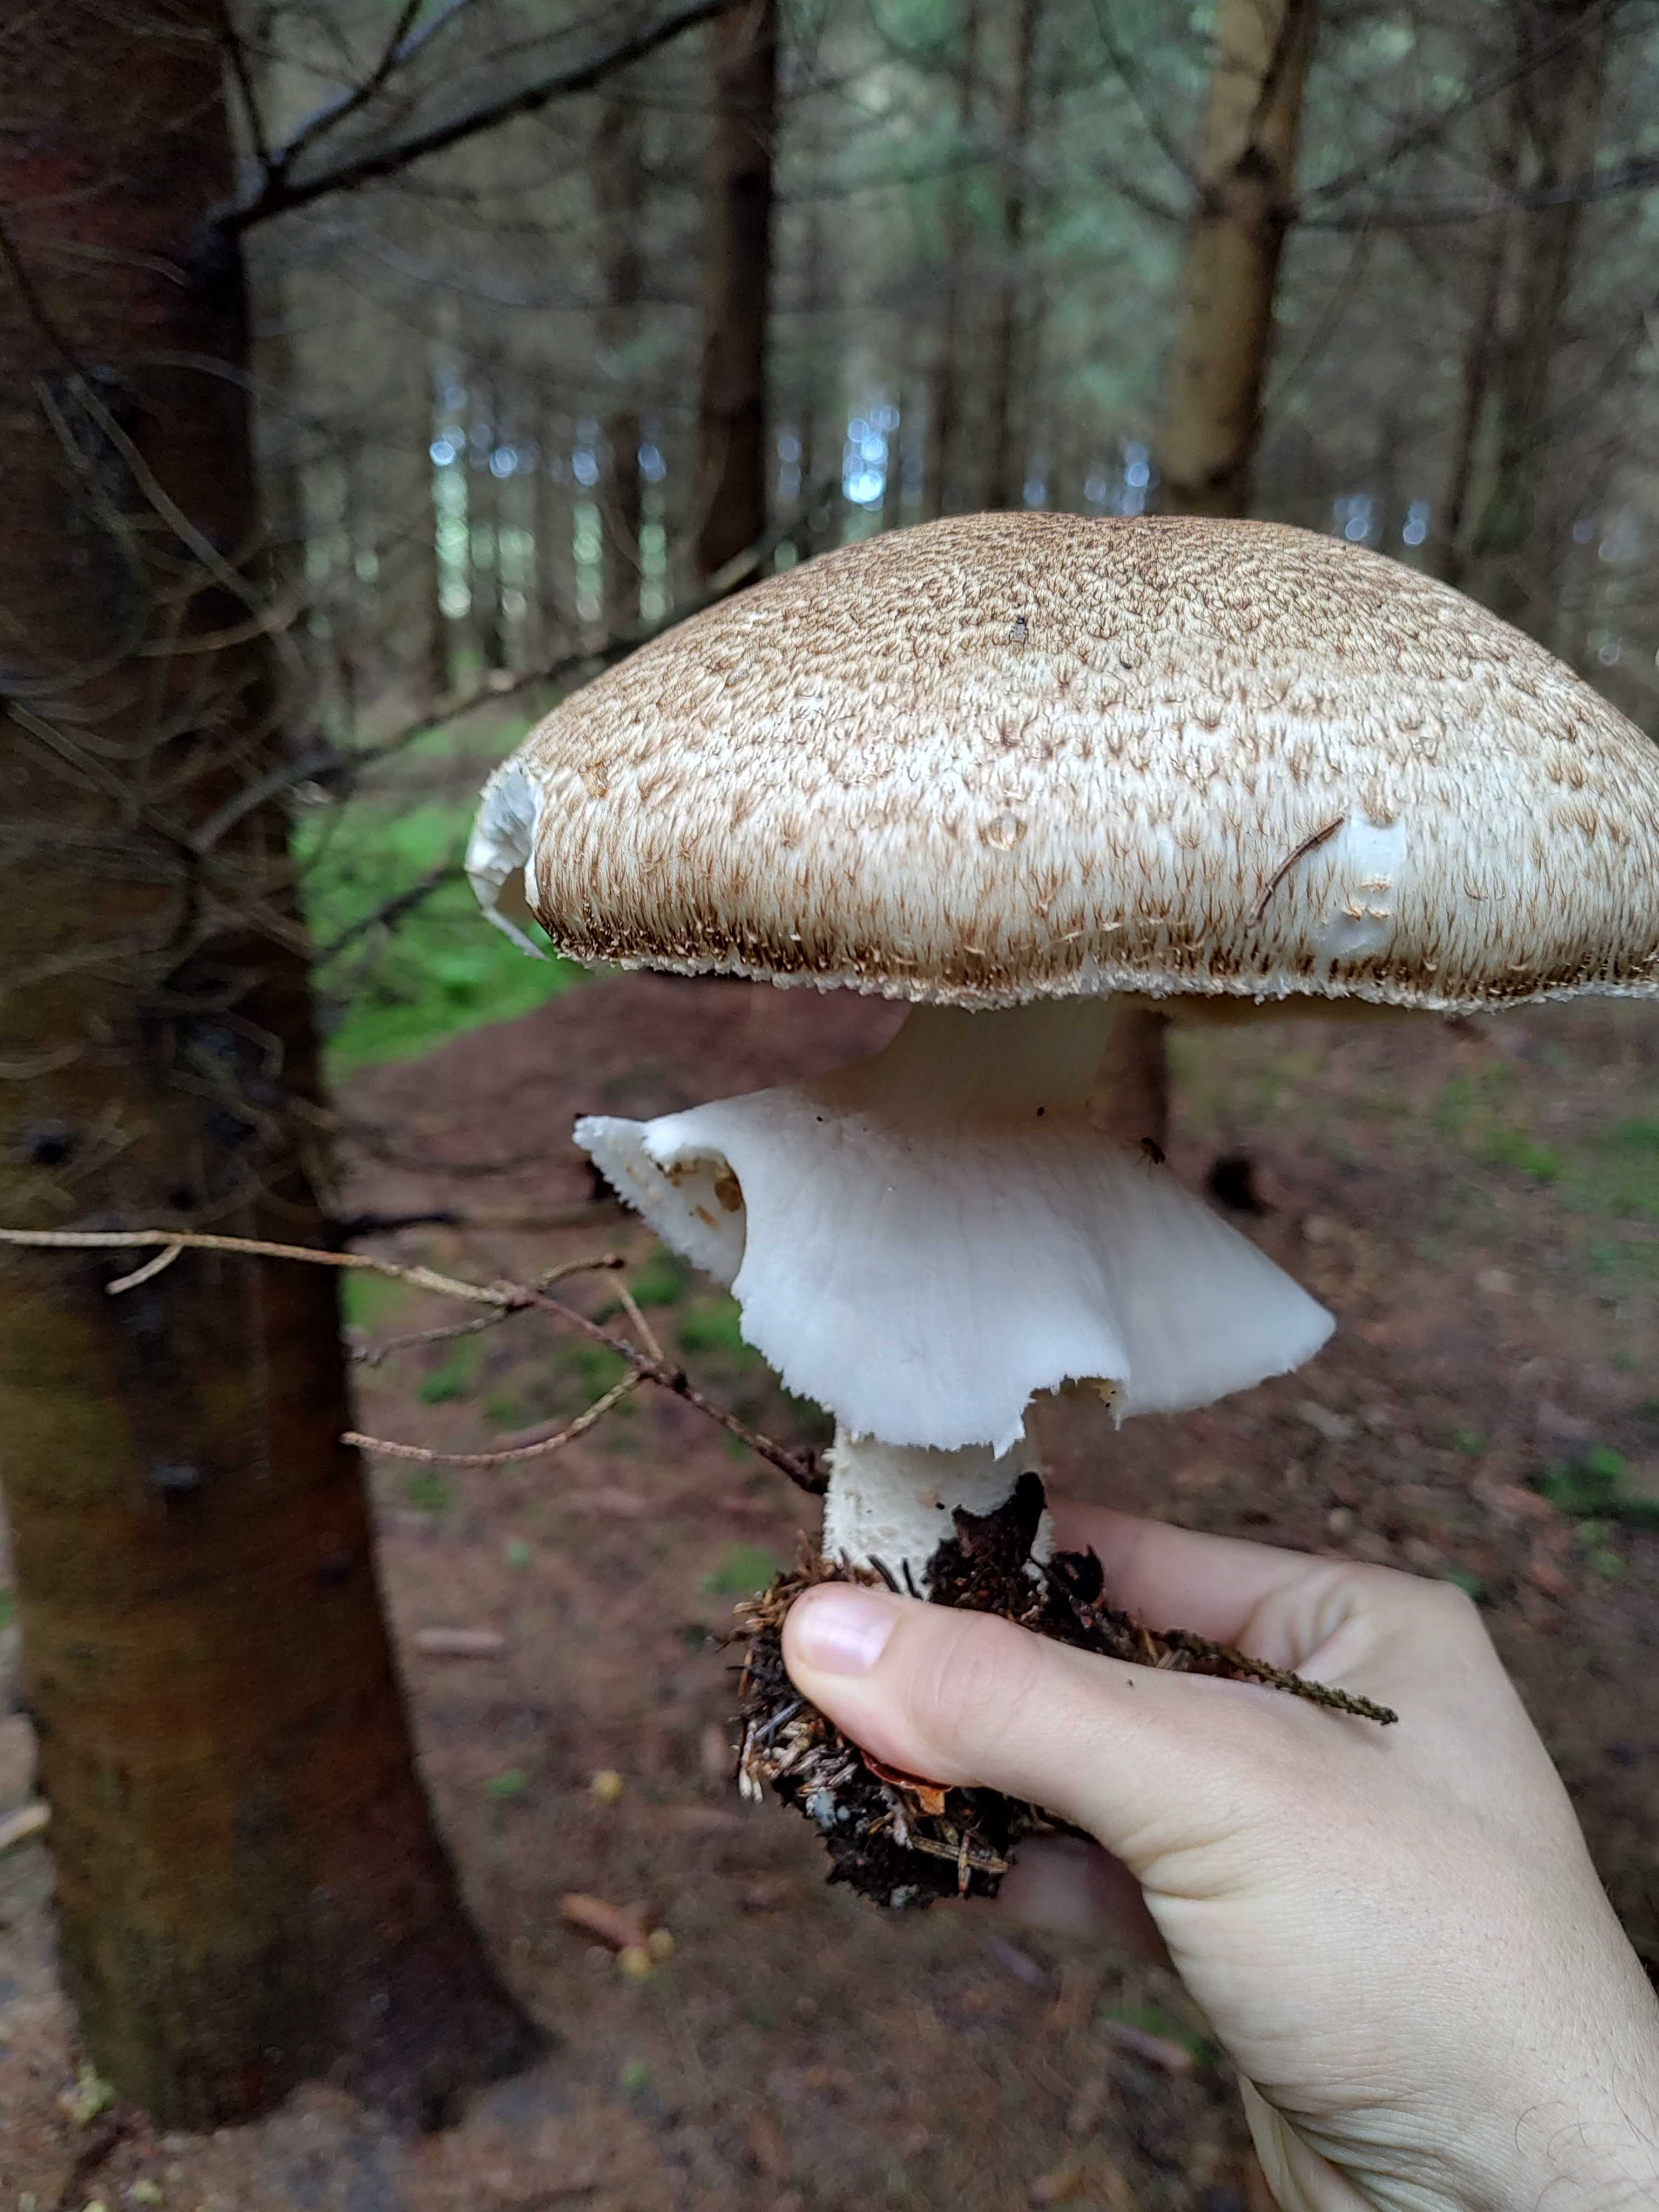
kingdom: Fungi
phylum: Basidiomycota
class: Agaricomycetes
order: Agaricales
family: Agaricaceae
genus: Agaricus
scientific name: Agaricus augustus
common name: prægtig champignon
